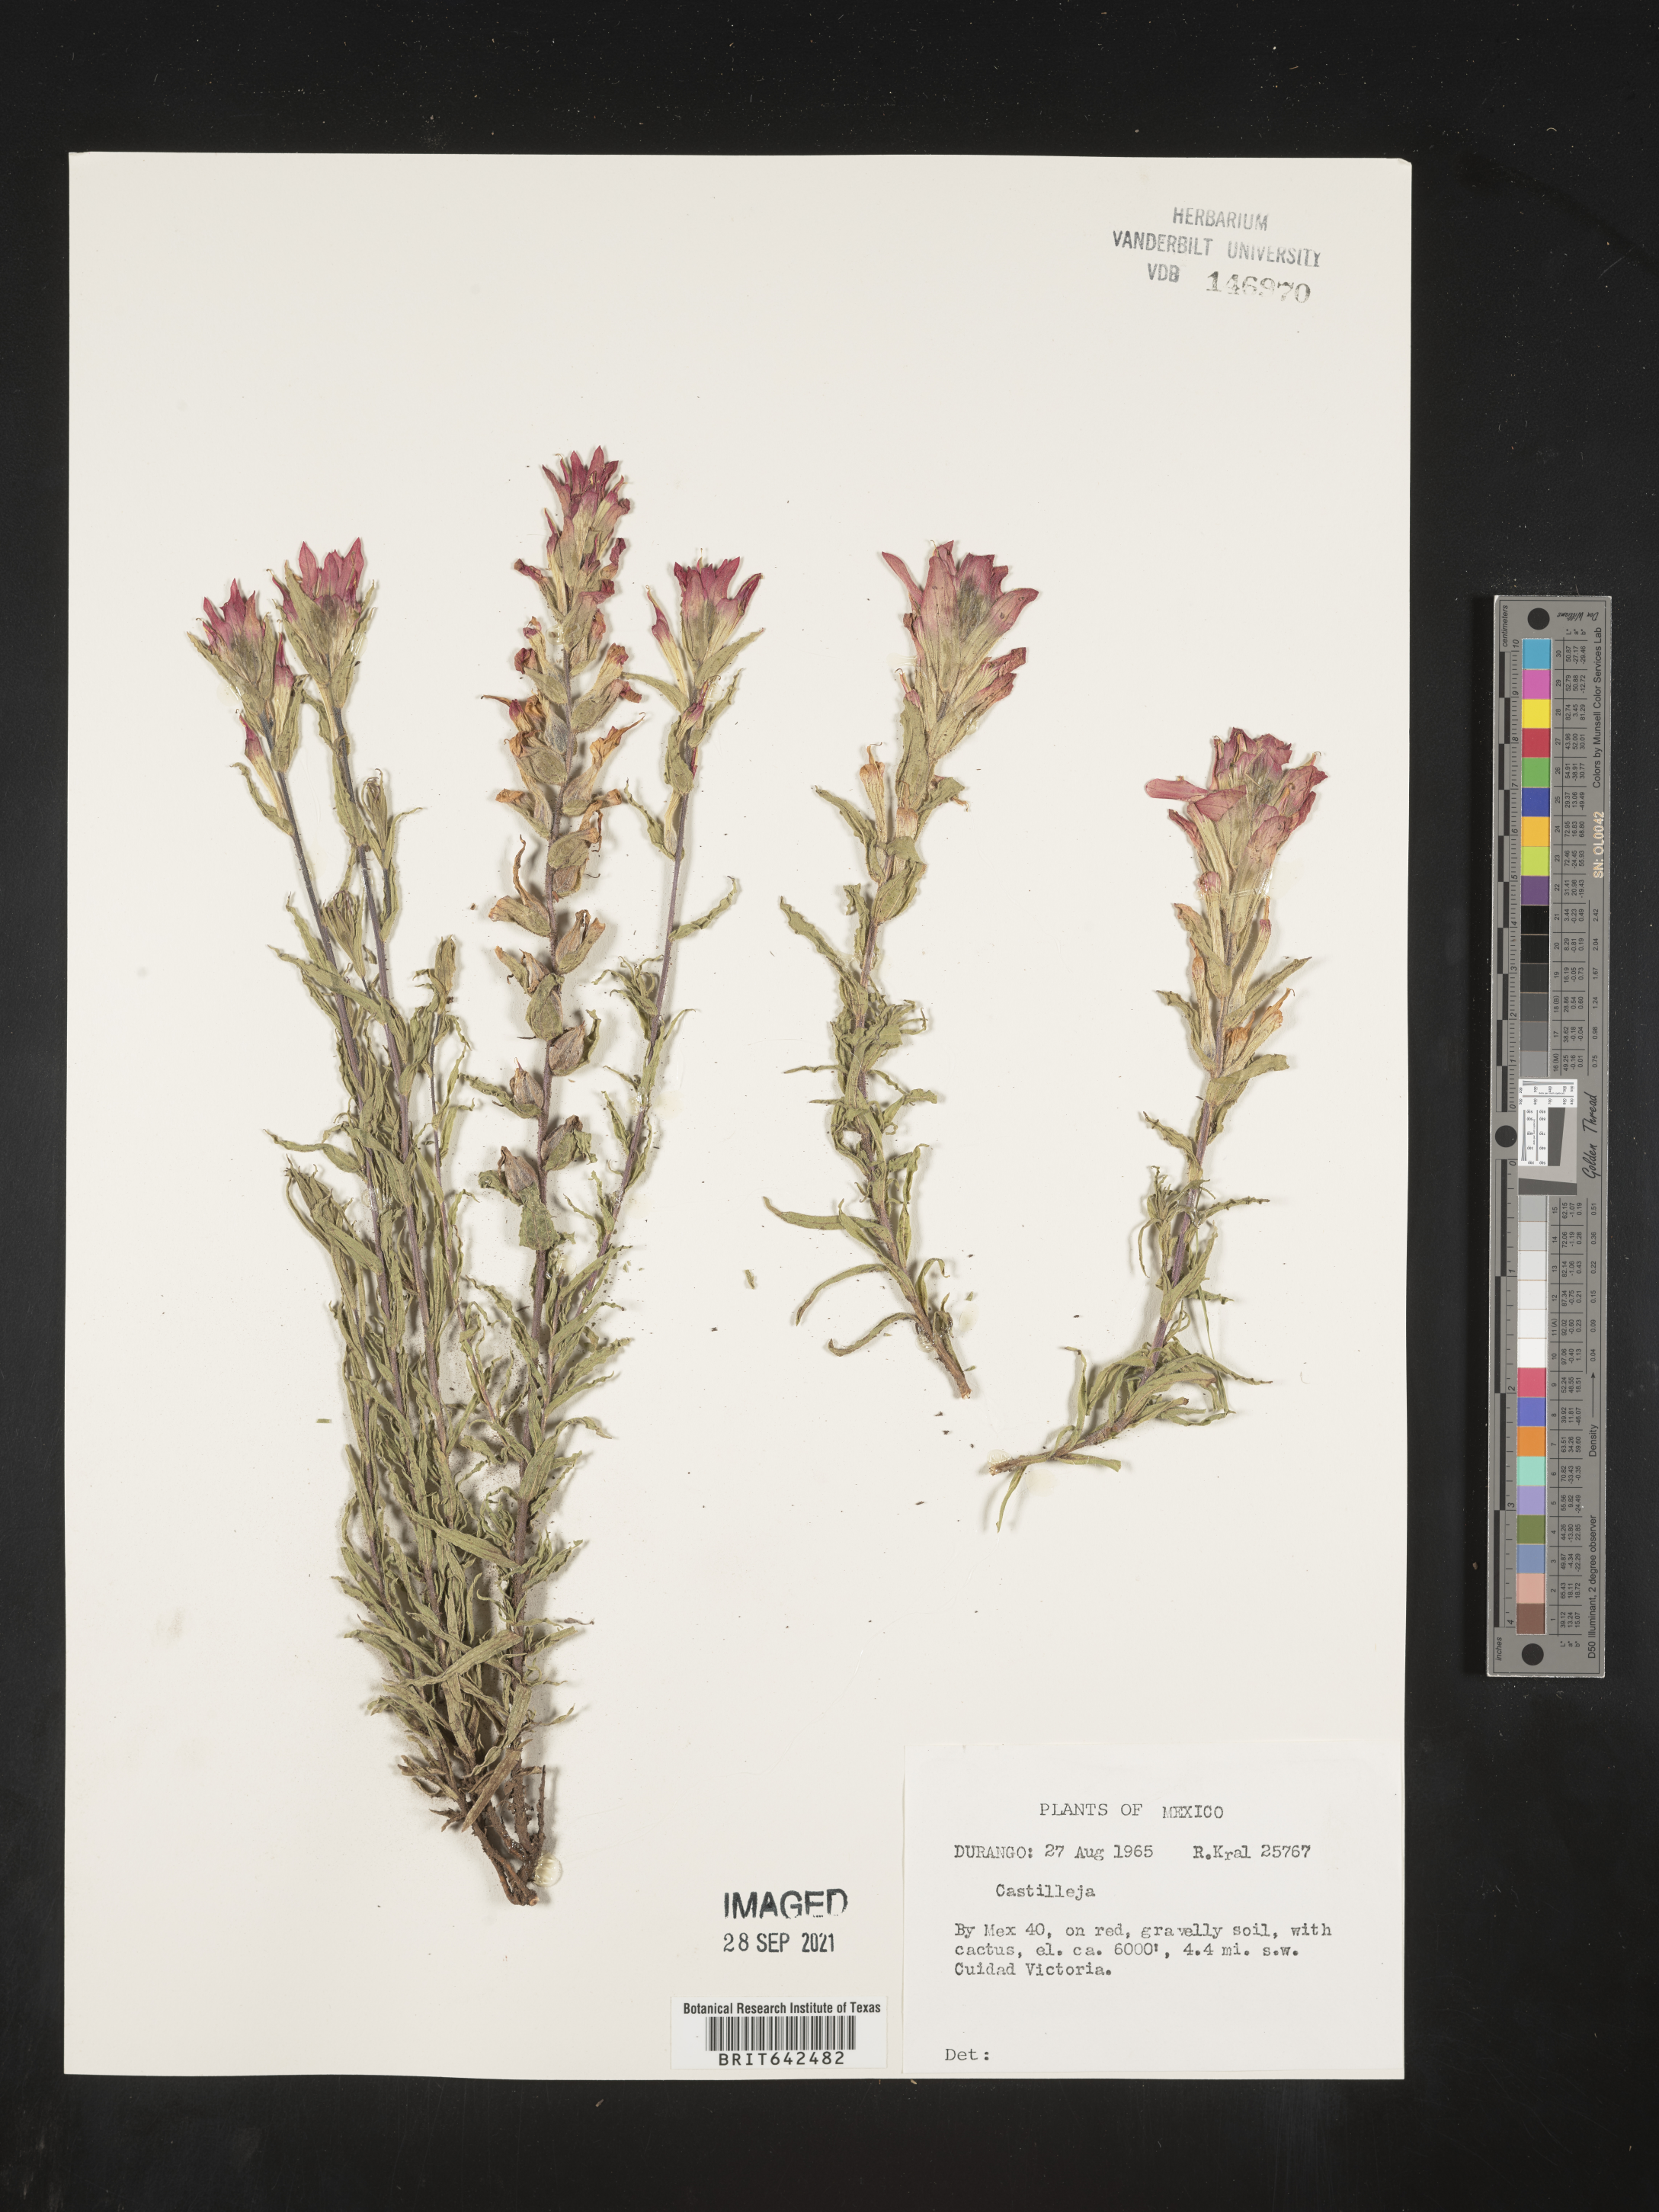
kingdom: Plantae
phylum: Tracheophyta
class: Magnoliopsida
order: Lamiales
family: Orobanchaceae
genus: Castilleja
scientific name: Castilleja
